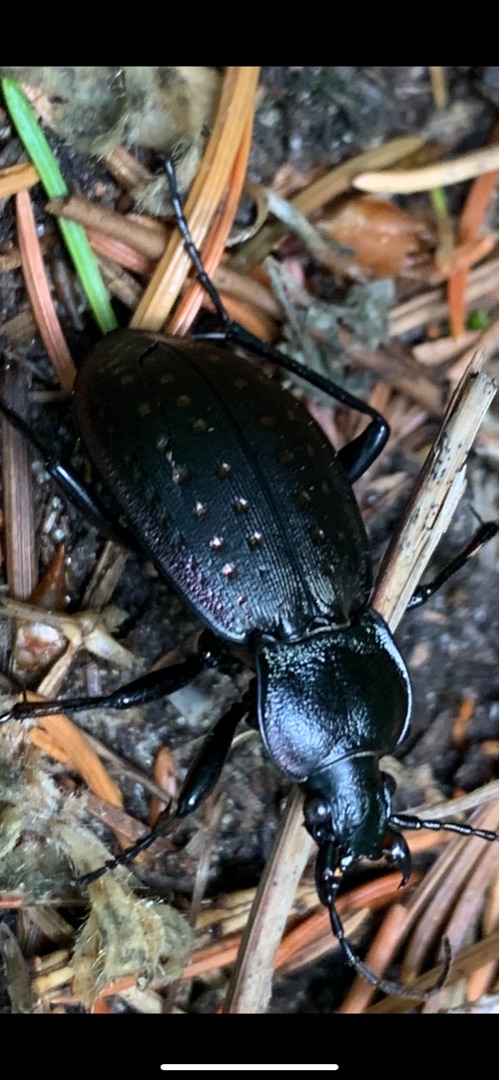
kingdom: Animalia
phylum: Arthropoda
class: Insecta
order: Coleoptera
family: Carabidae
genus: Carabus
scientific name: Carabus hortensis
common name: Guldpletløber
